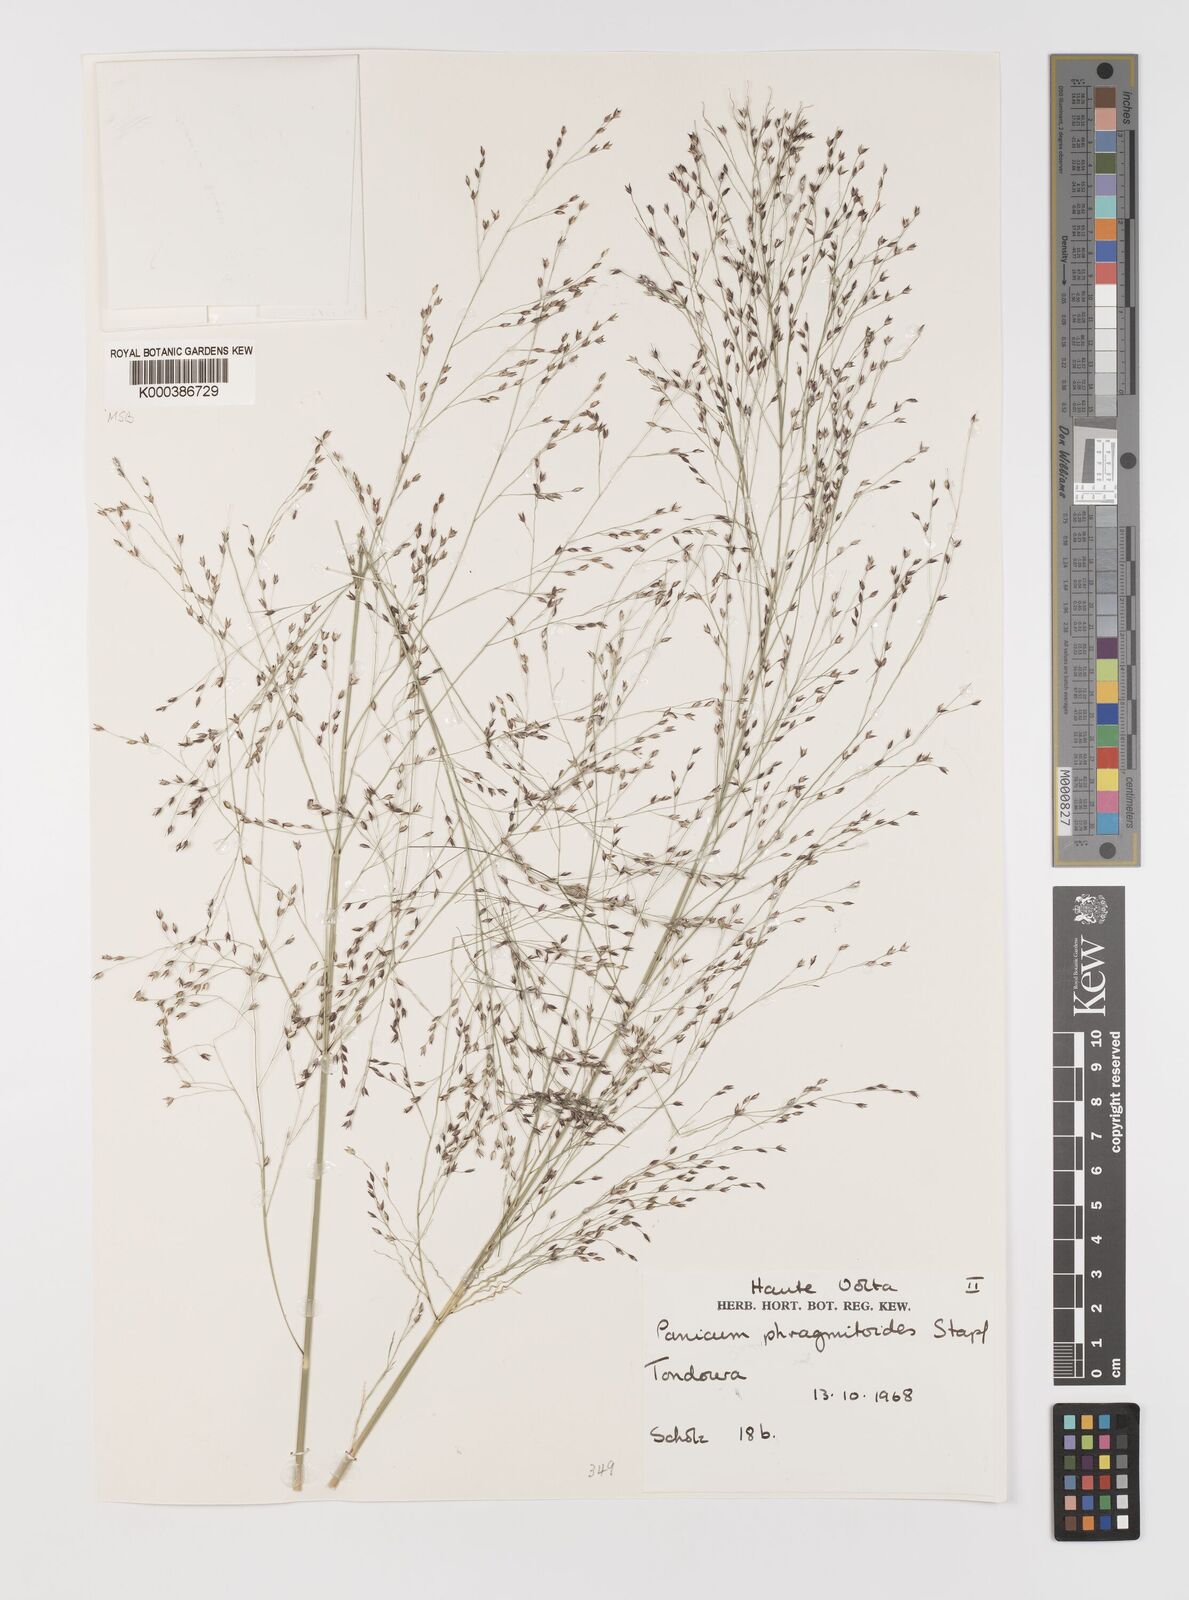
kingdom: Plantae
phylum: Tracheophyta
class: Liliopsida
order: Poales
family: Poaceae
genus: Panicum
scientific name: Panicum phragmitoides
